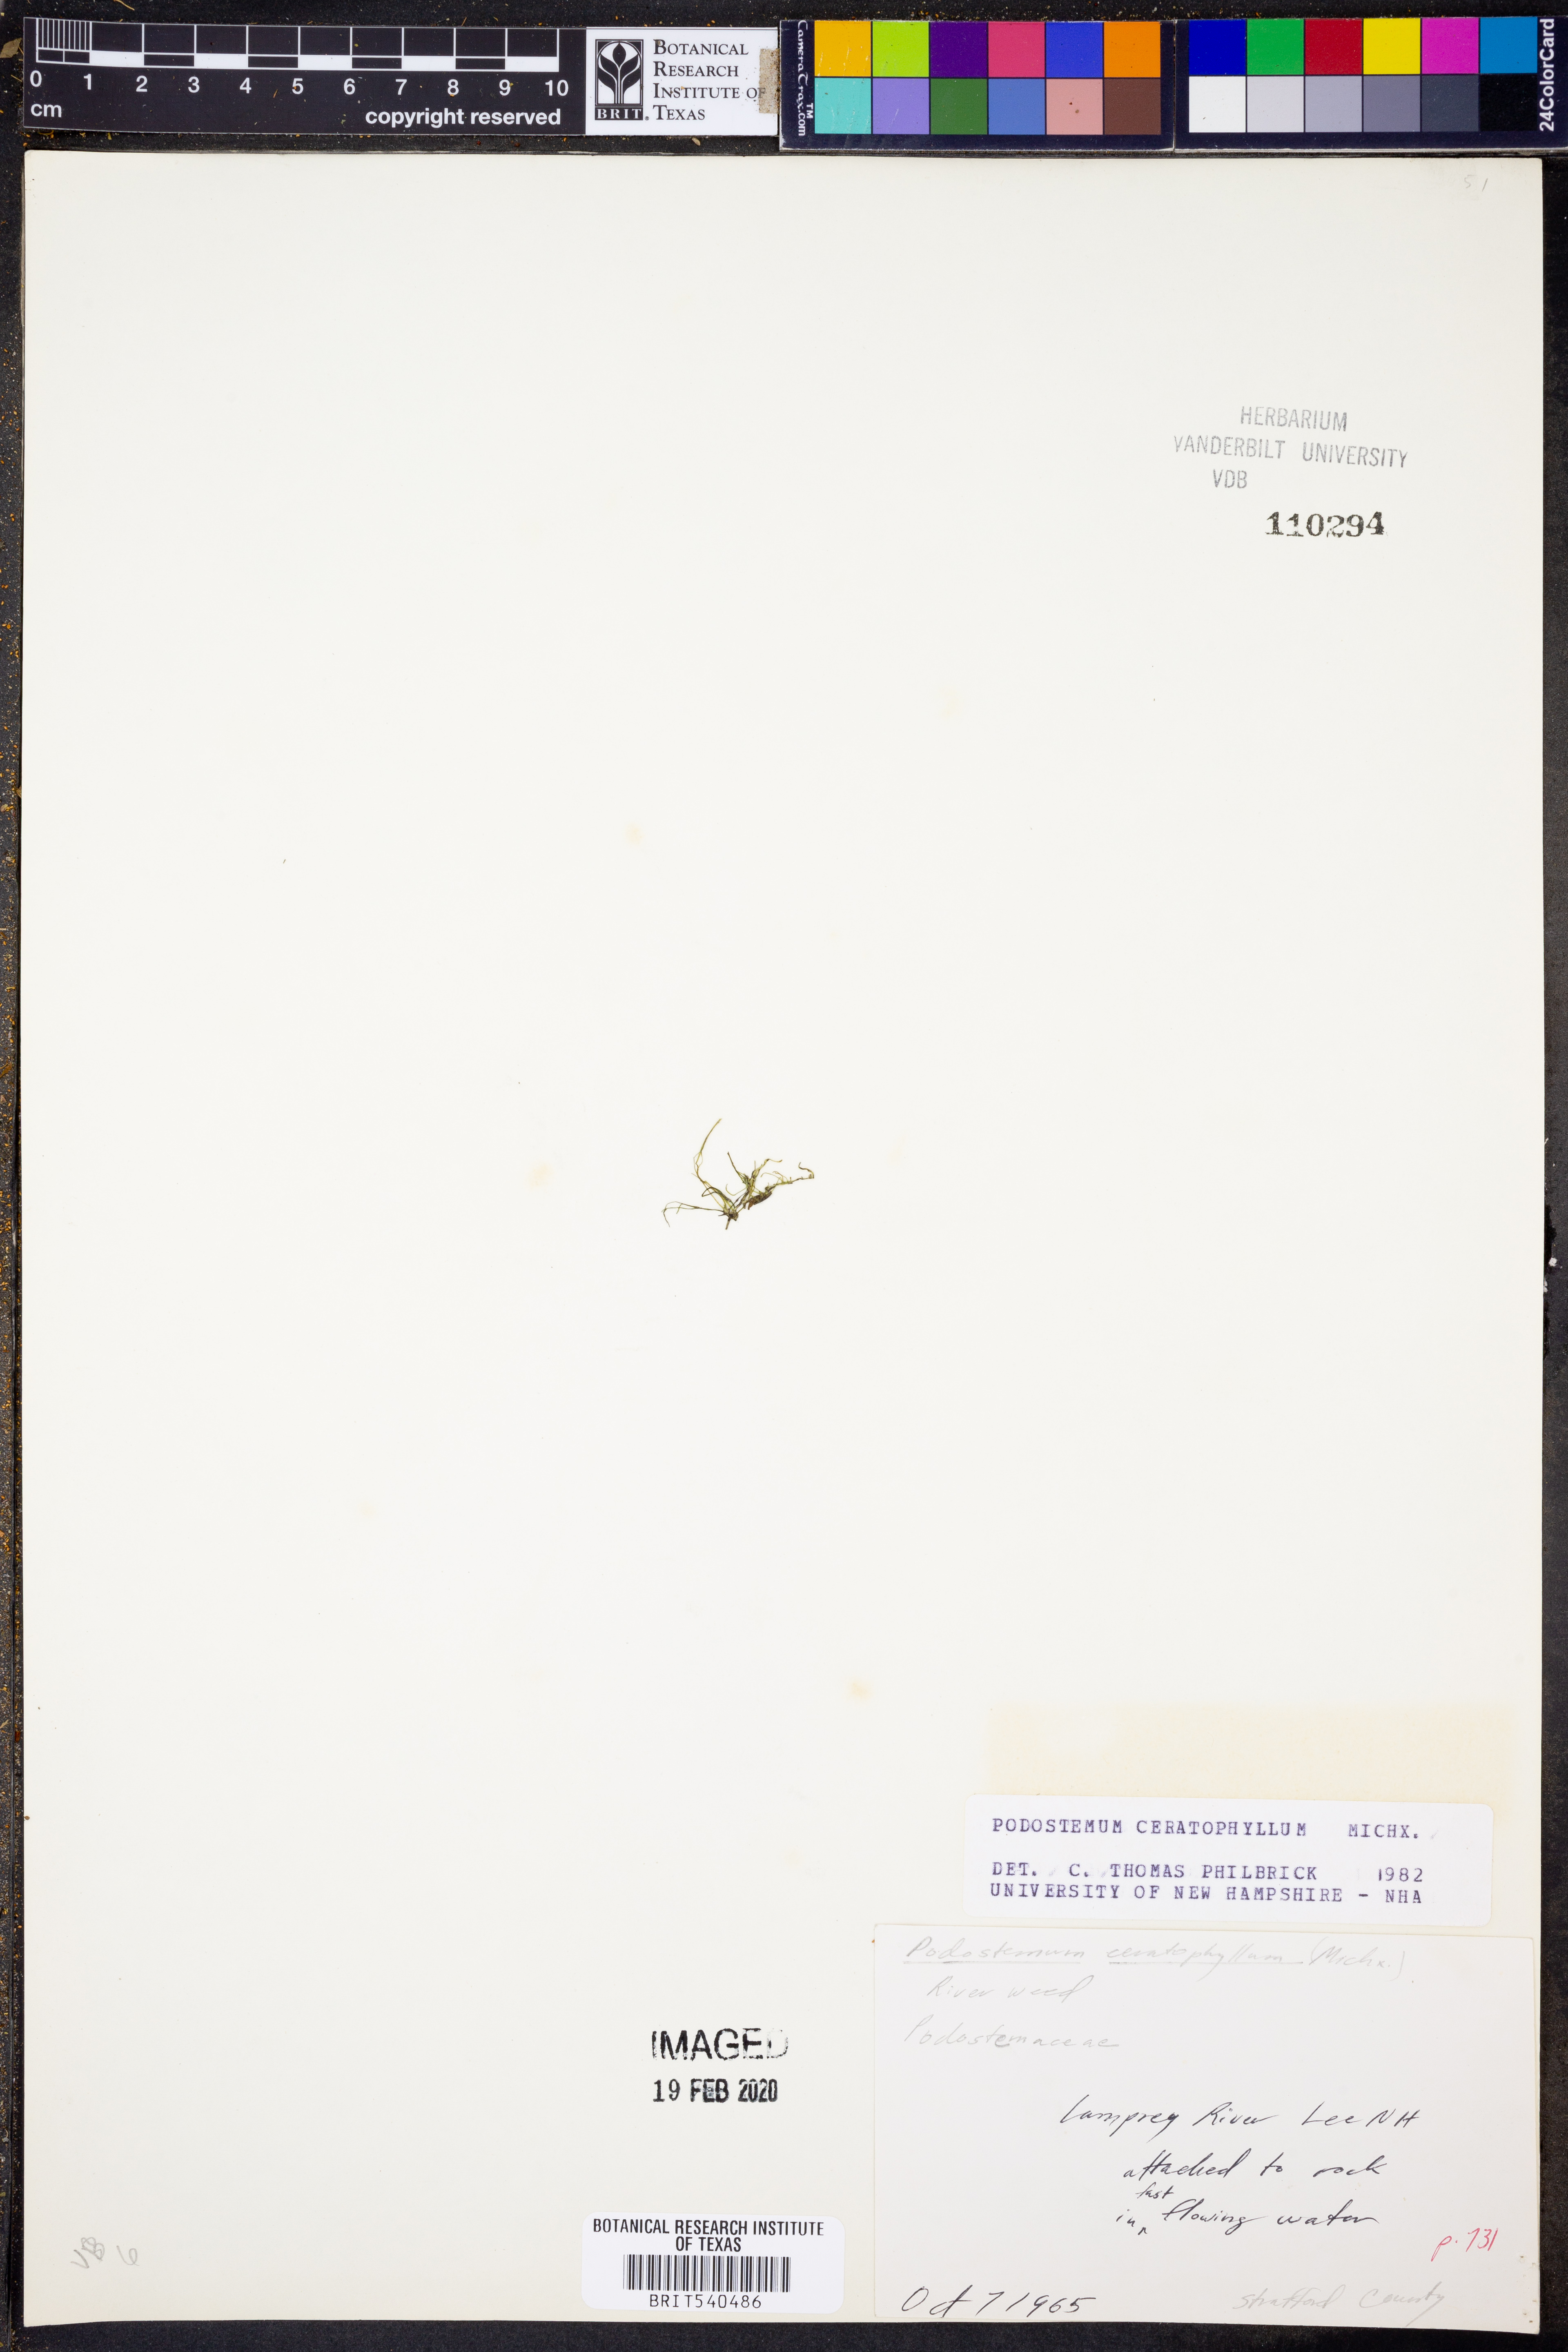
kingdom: Plantae
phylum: Tracheophyta
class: Magnoliopsida
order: Malpighiales
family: Podostemaceae
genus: Podostemum
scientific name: Podostemum ceratophyllum
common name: Horn-leaved riverweed
